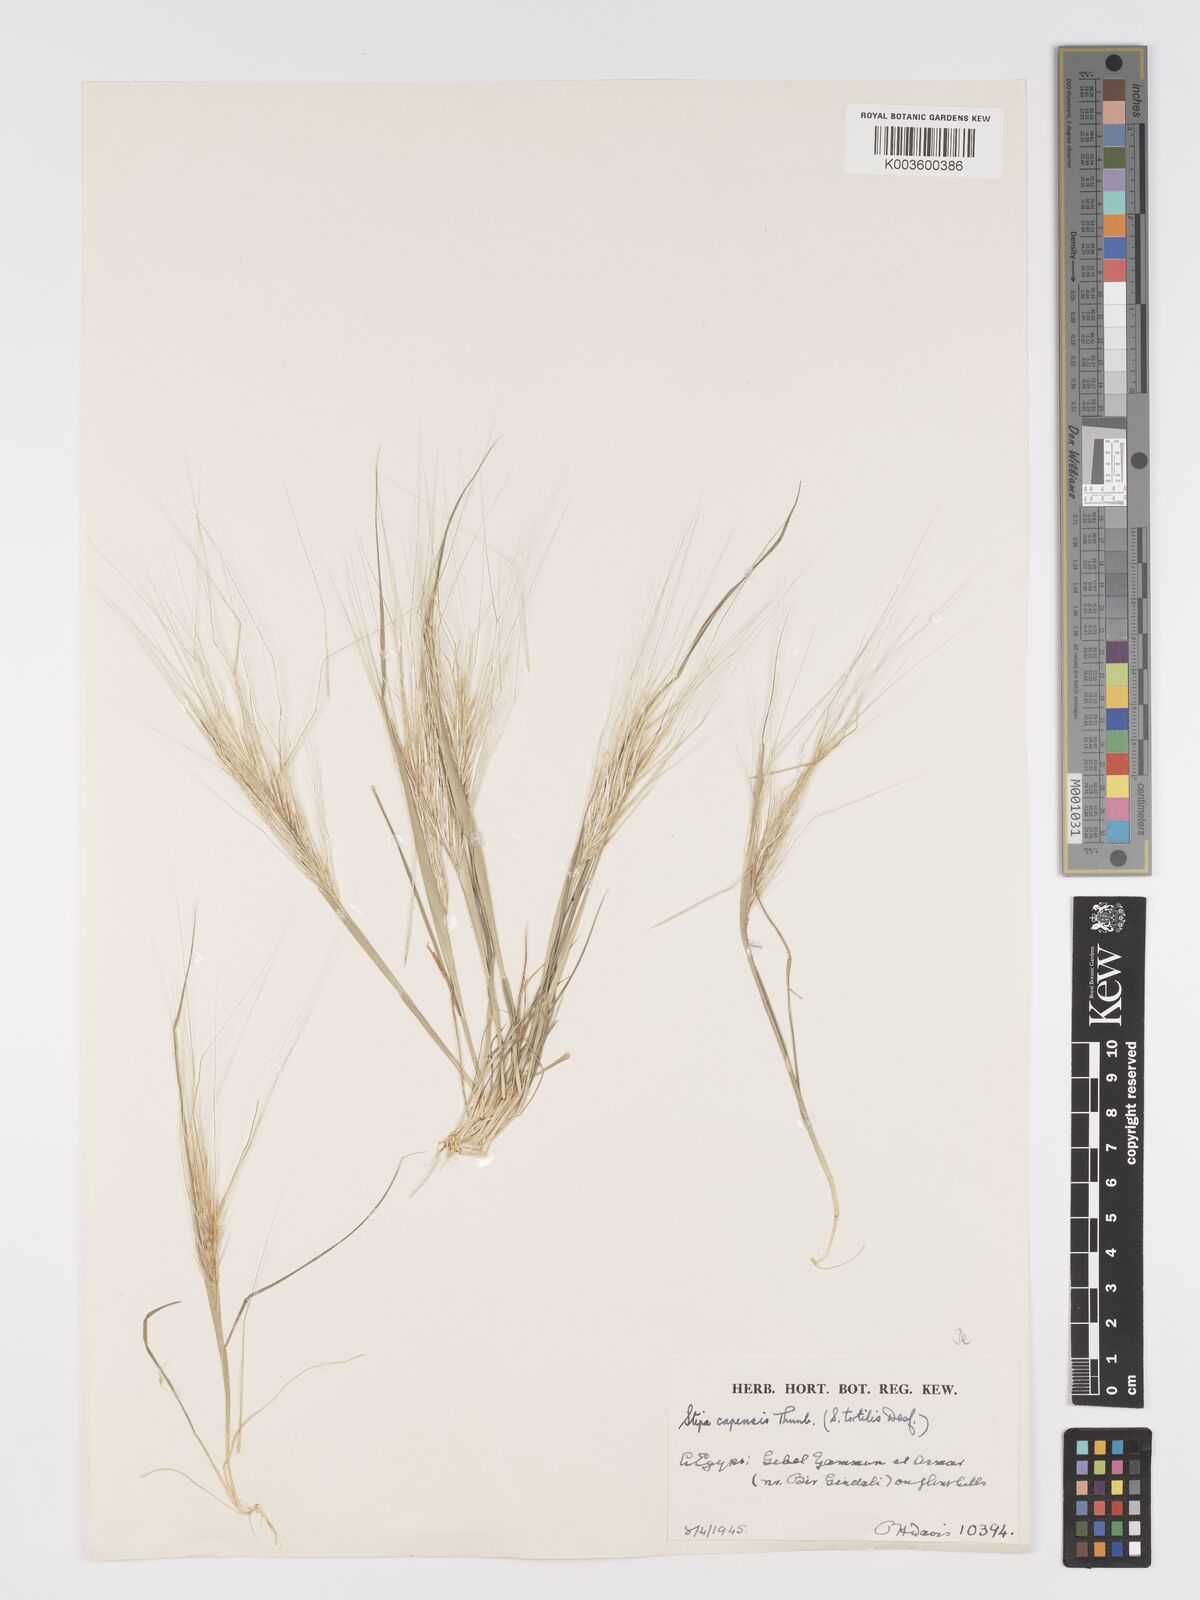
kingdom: Plantae
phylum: Tracheophyta
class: Liliopsida
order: Poales
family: Poaceae
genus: Stipellula
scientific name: Stipellula capensis
